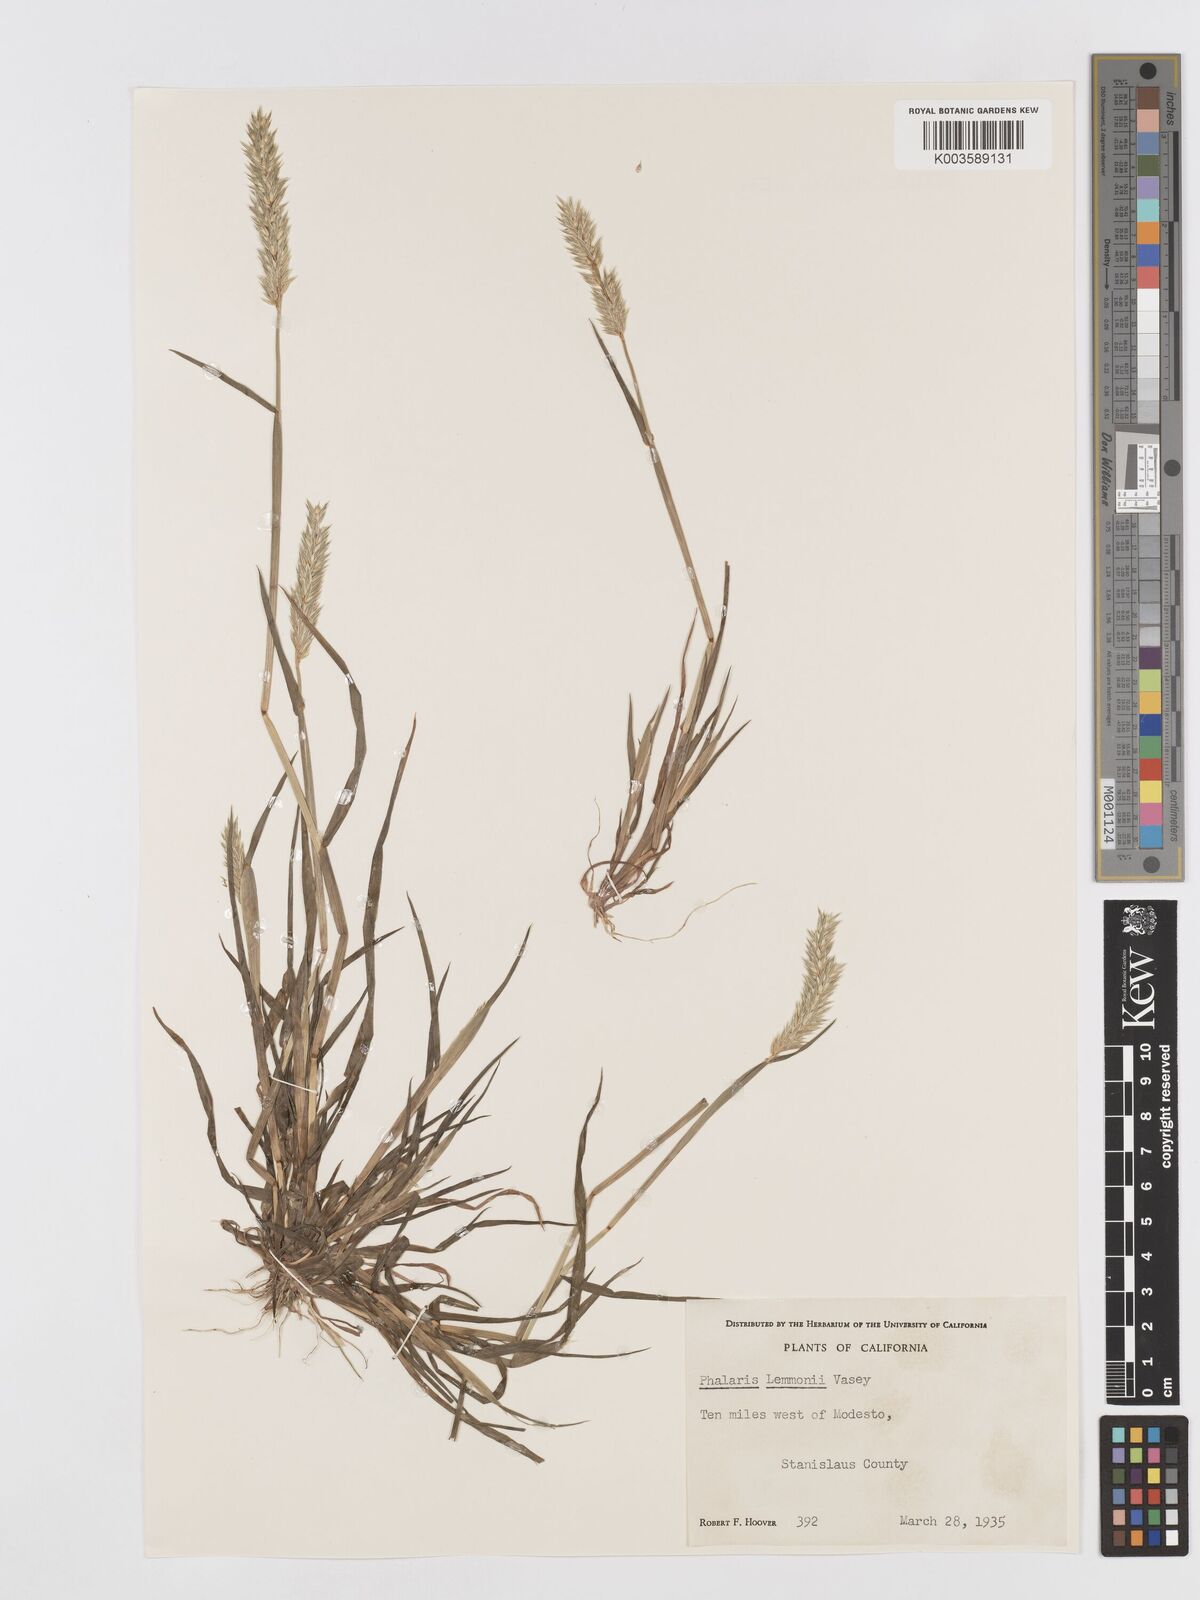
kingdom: Plantae
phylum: Tracheophyta
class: Liliopsida
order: Poales
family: Poaceae
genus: Phalaris
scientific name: Phalaris lemmonii
